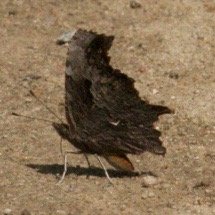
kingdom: Animalia
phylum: Arthropoda
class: Insecta
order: Lepidoptera
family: Nymphalidae
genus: Polygonia
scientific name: Polygonia progne
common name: Gray Comma
